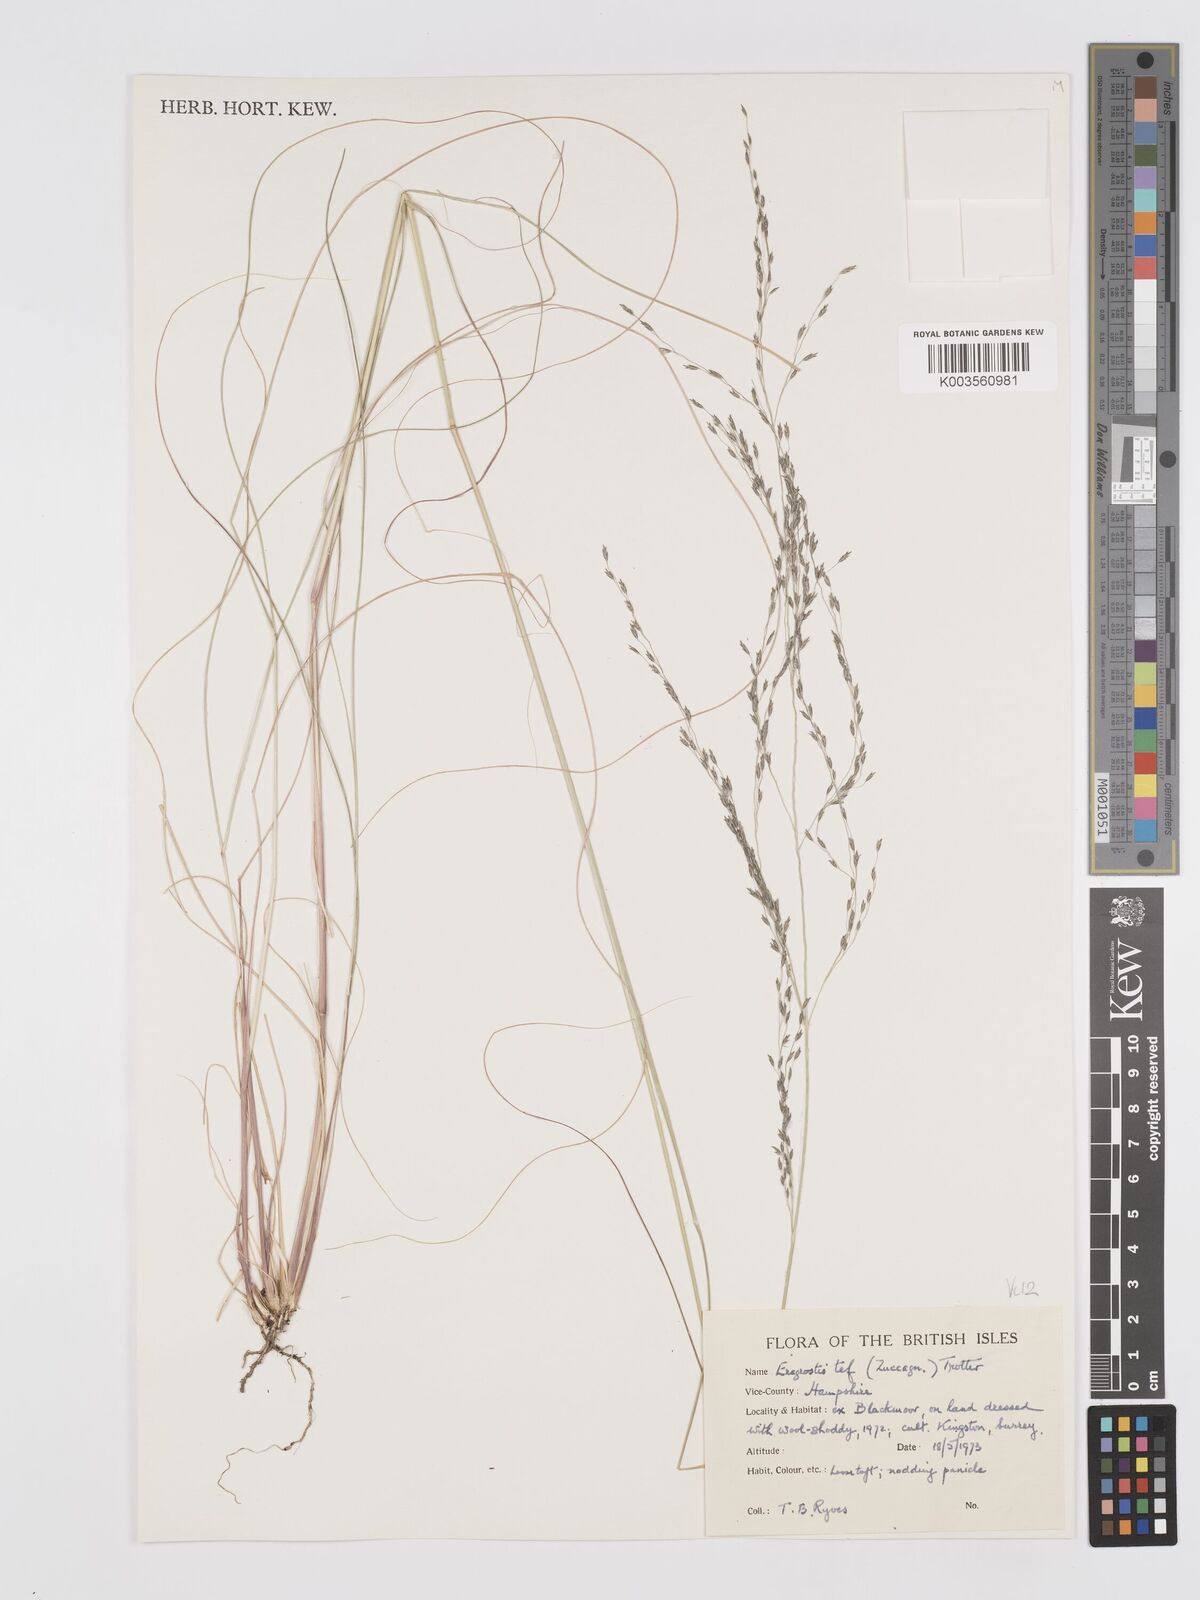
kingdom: Plantae
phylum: Tracheophyta
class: Liliopsida
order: Poales
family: Poaceae
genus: Eragrostis
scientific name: Eragrostis tef
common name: Teff
